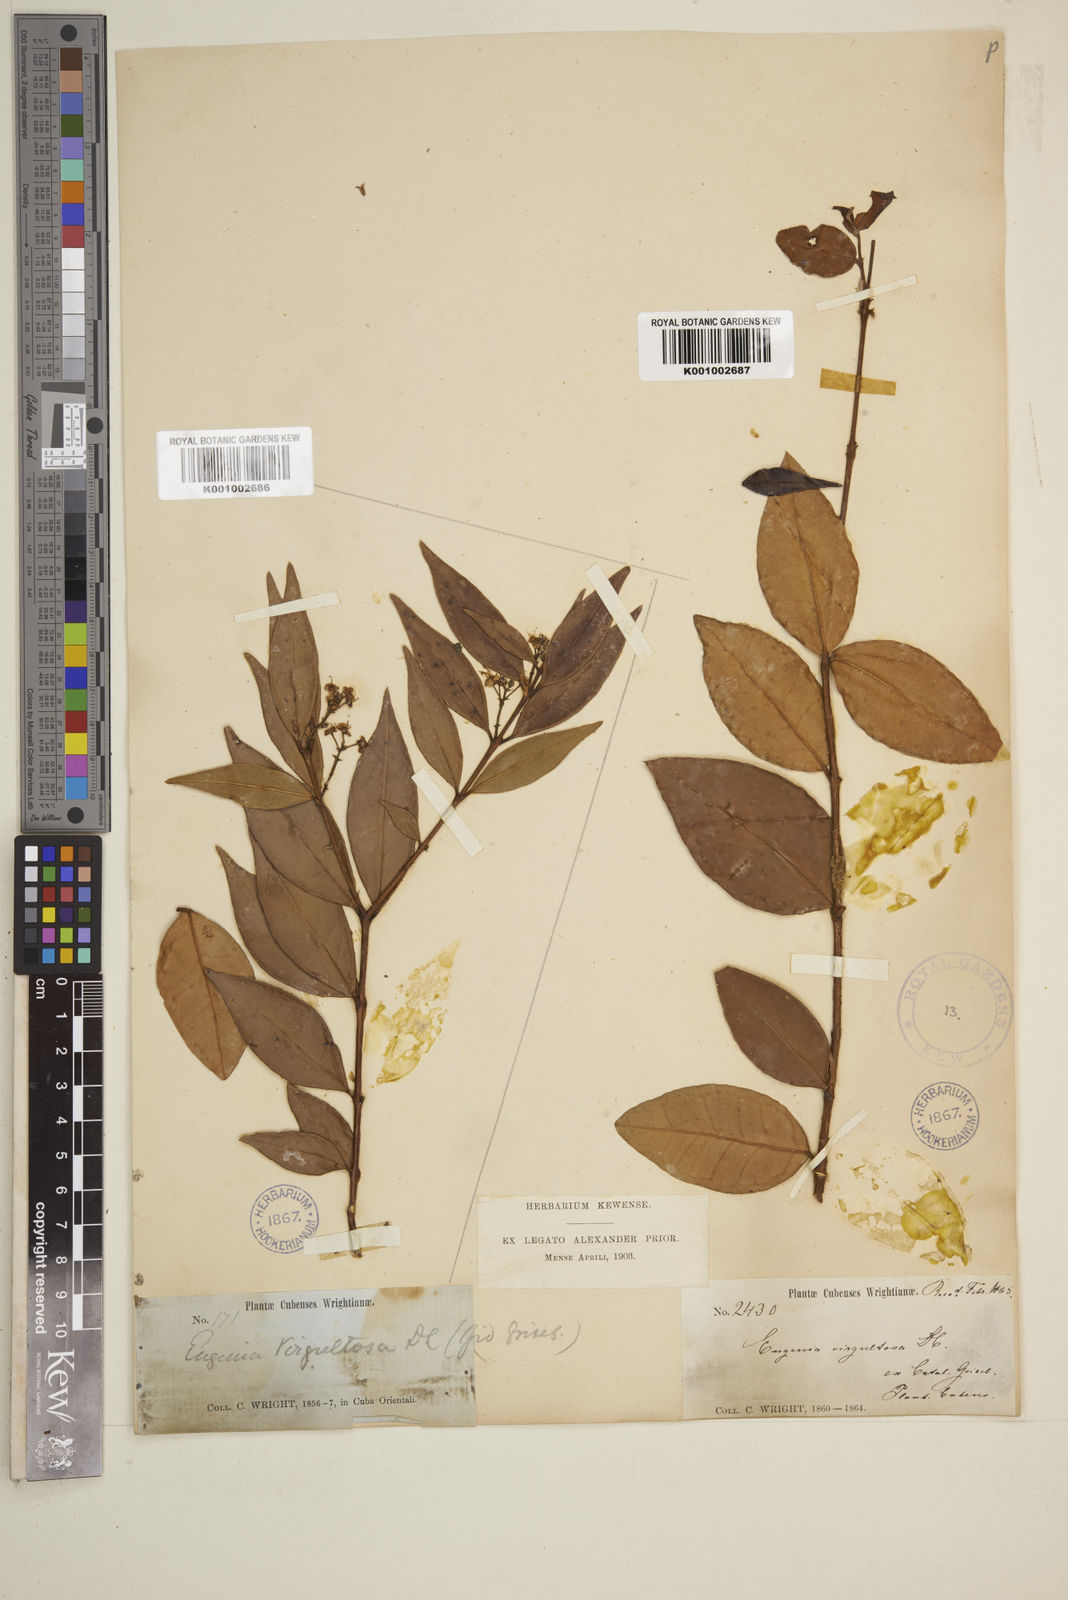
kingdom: Plantae
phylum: Tracheophyta
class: Magnoliopsida
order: Myrtales
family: Myrtaceae
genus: Eugenia
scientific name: Eugenia biflora
